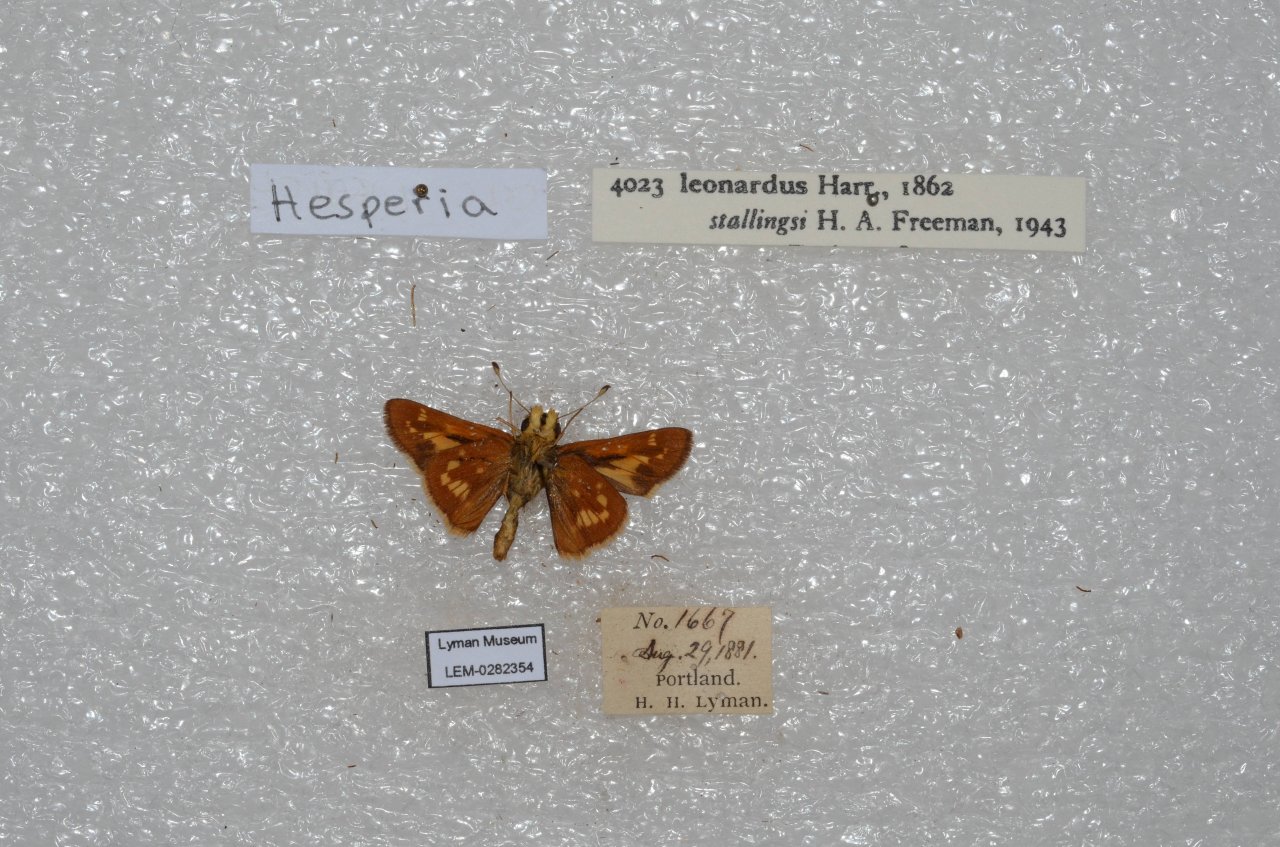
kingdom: Animalia
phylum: Arthropoda
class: Insecta
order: Lepidoptera
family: Hesperiidae
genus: Polites
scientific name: Polites
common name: Long Dash Skipper
